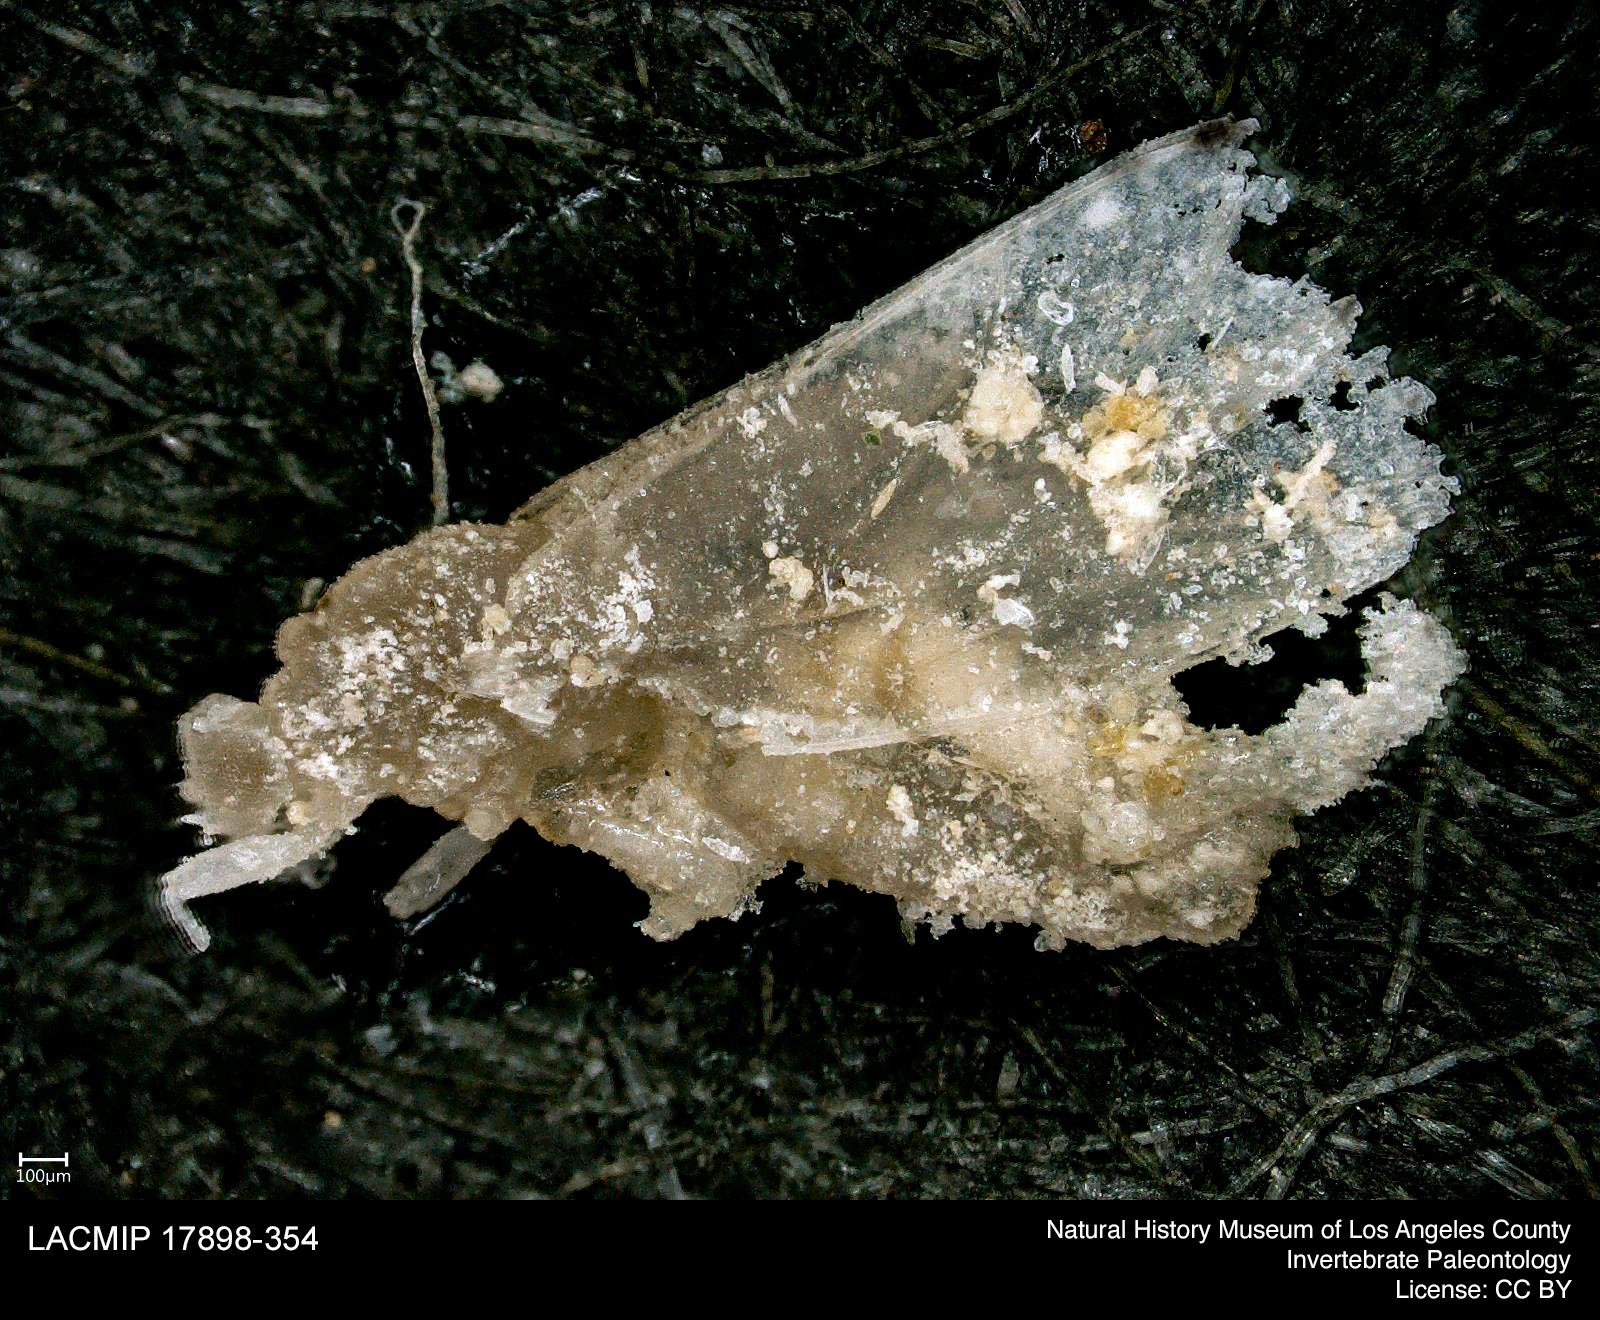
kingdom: Animalia
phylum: Arthropoda
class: Insecta
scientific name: Insecta
